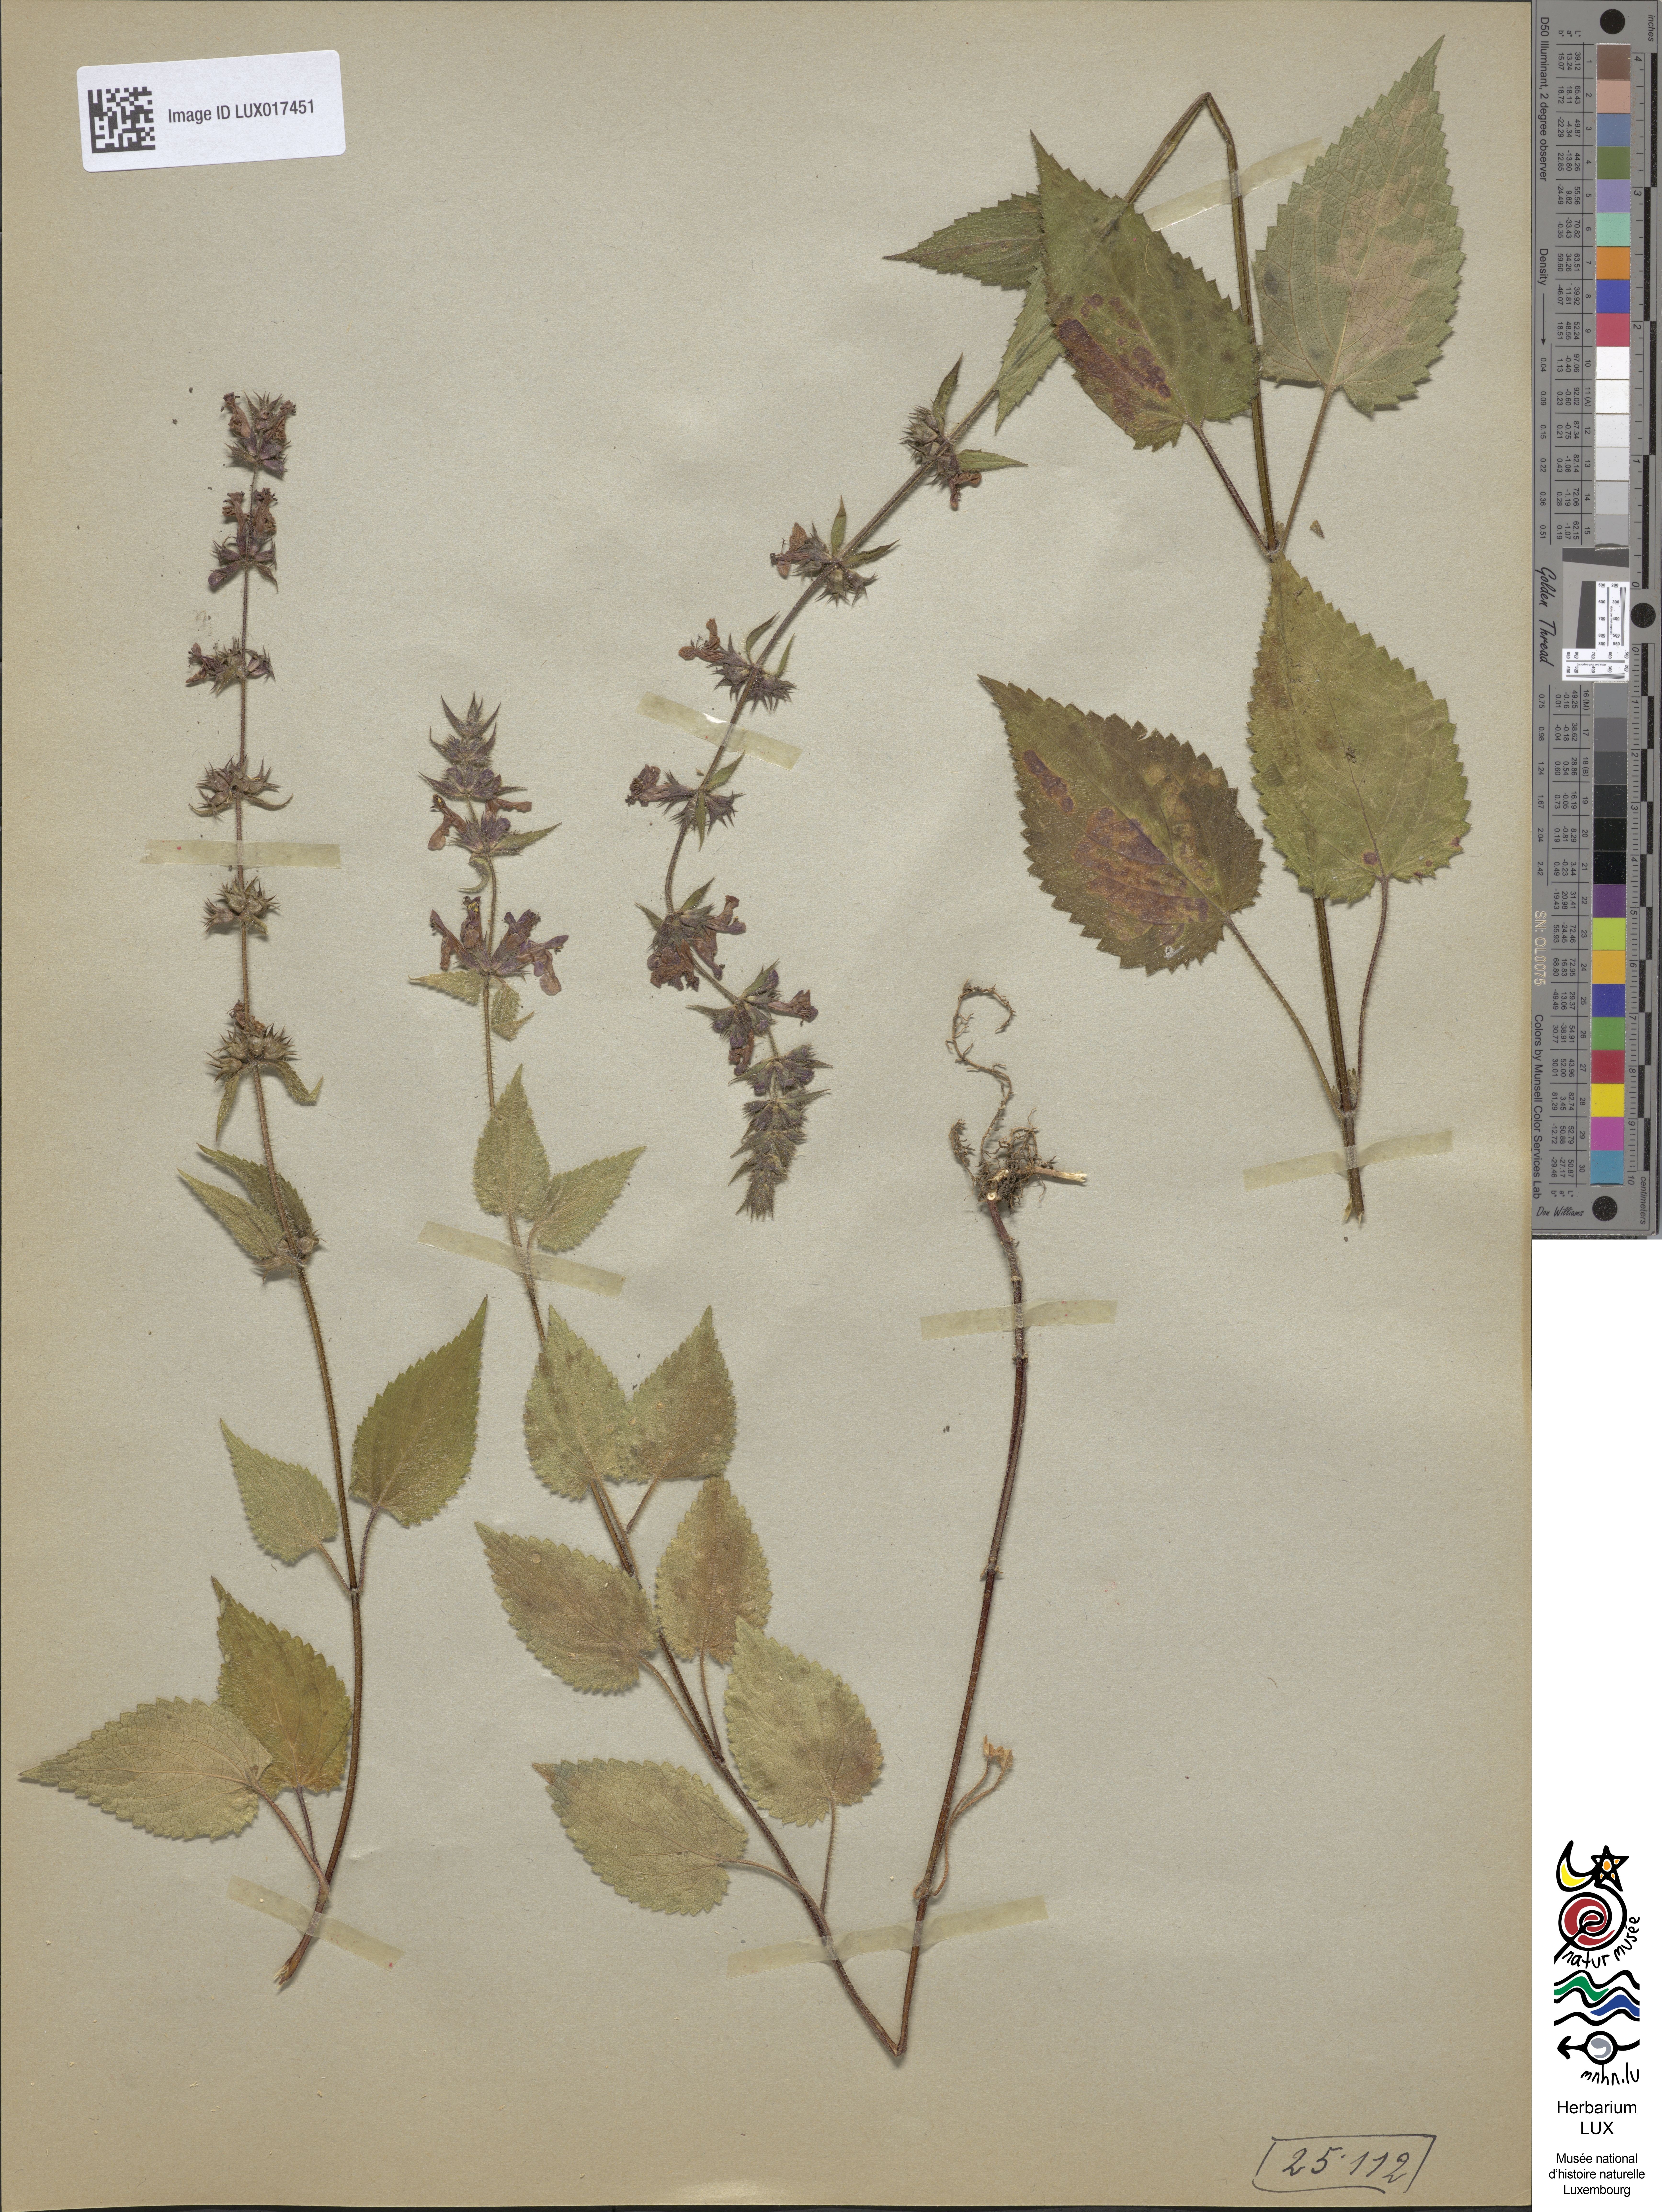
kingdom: Plantae
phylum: Tracheophyta
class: Magnoliopsida
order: Lamiales
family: Lamiaceae
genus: Stachys
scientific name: Stachys sylvatica
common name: Hedge woundwort
